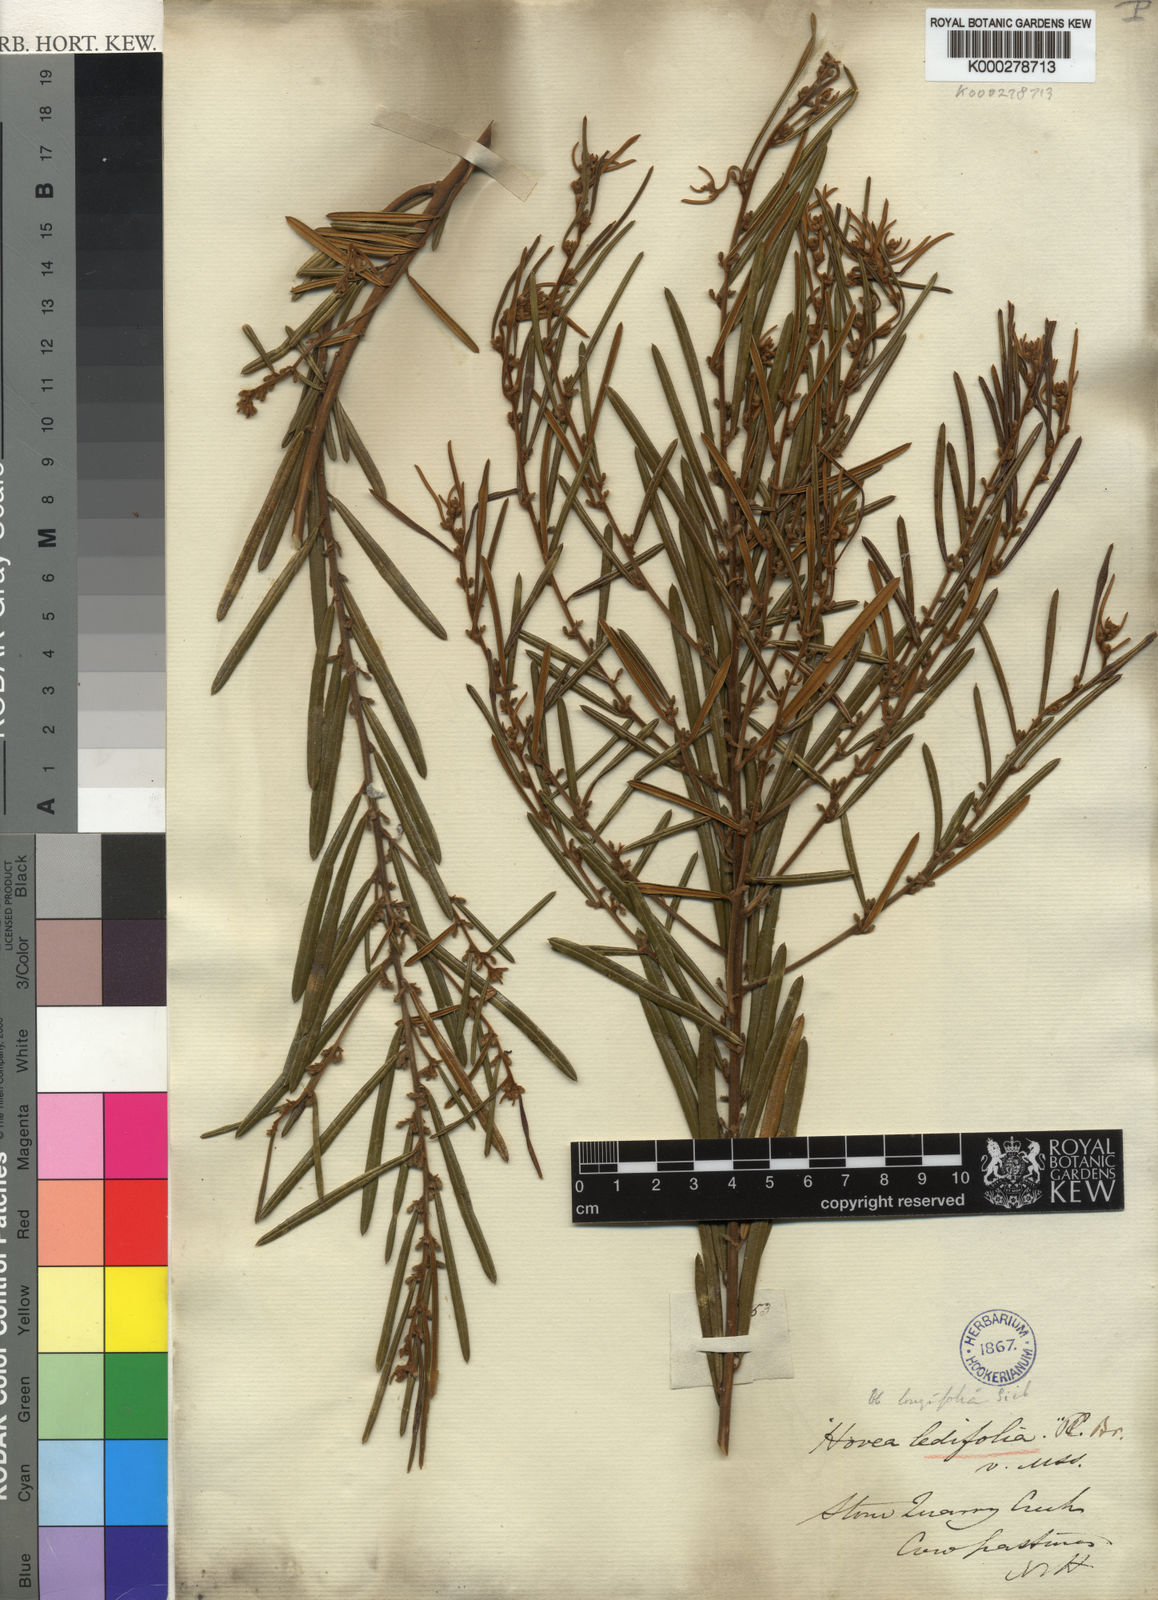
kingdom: Plantae
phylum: Tracheophyta
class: Magnoliopsida
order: Fabales
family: Fabaceae
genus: Hovea
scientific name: Hovea longifolia
